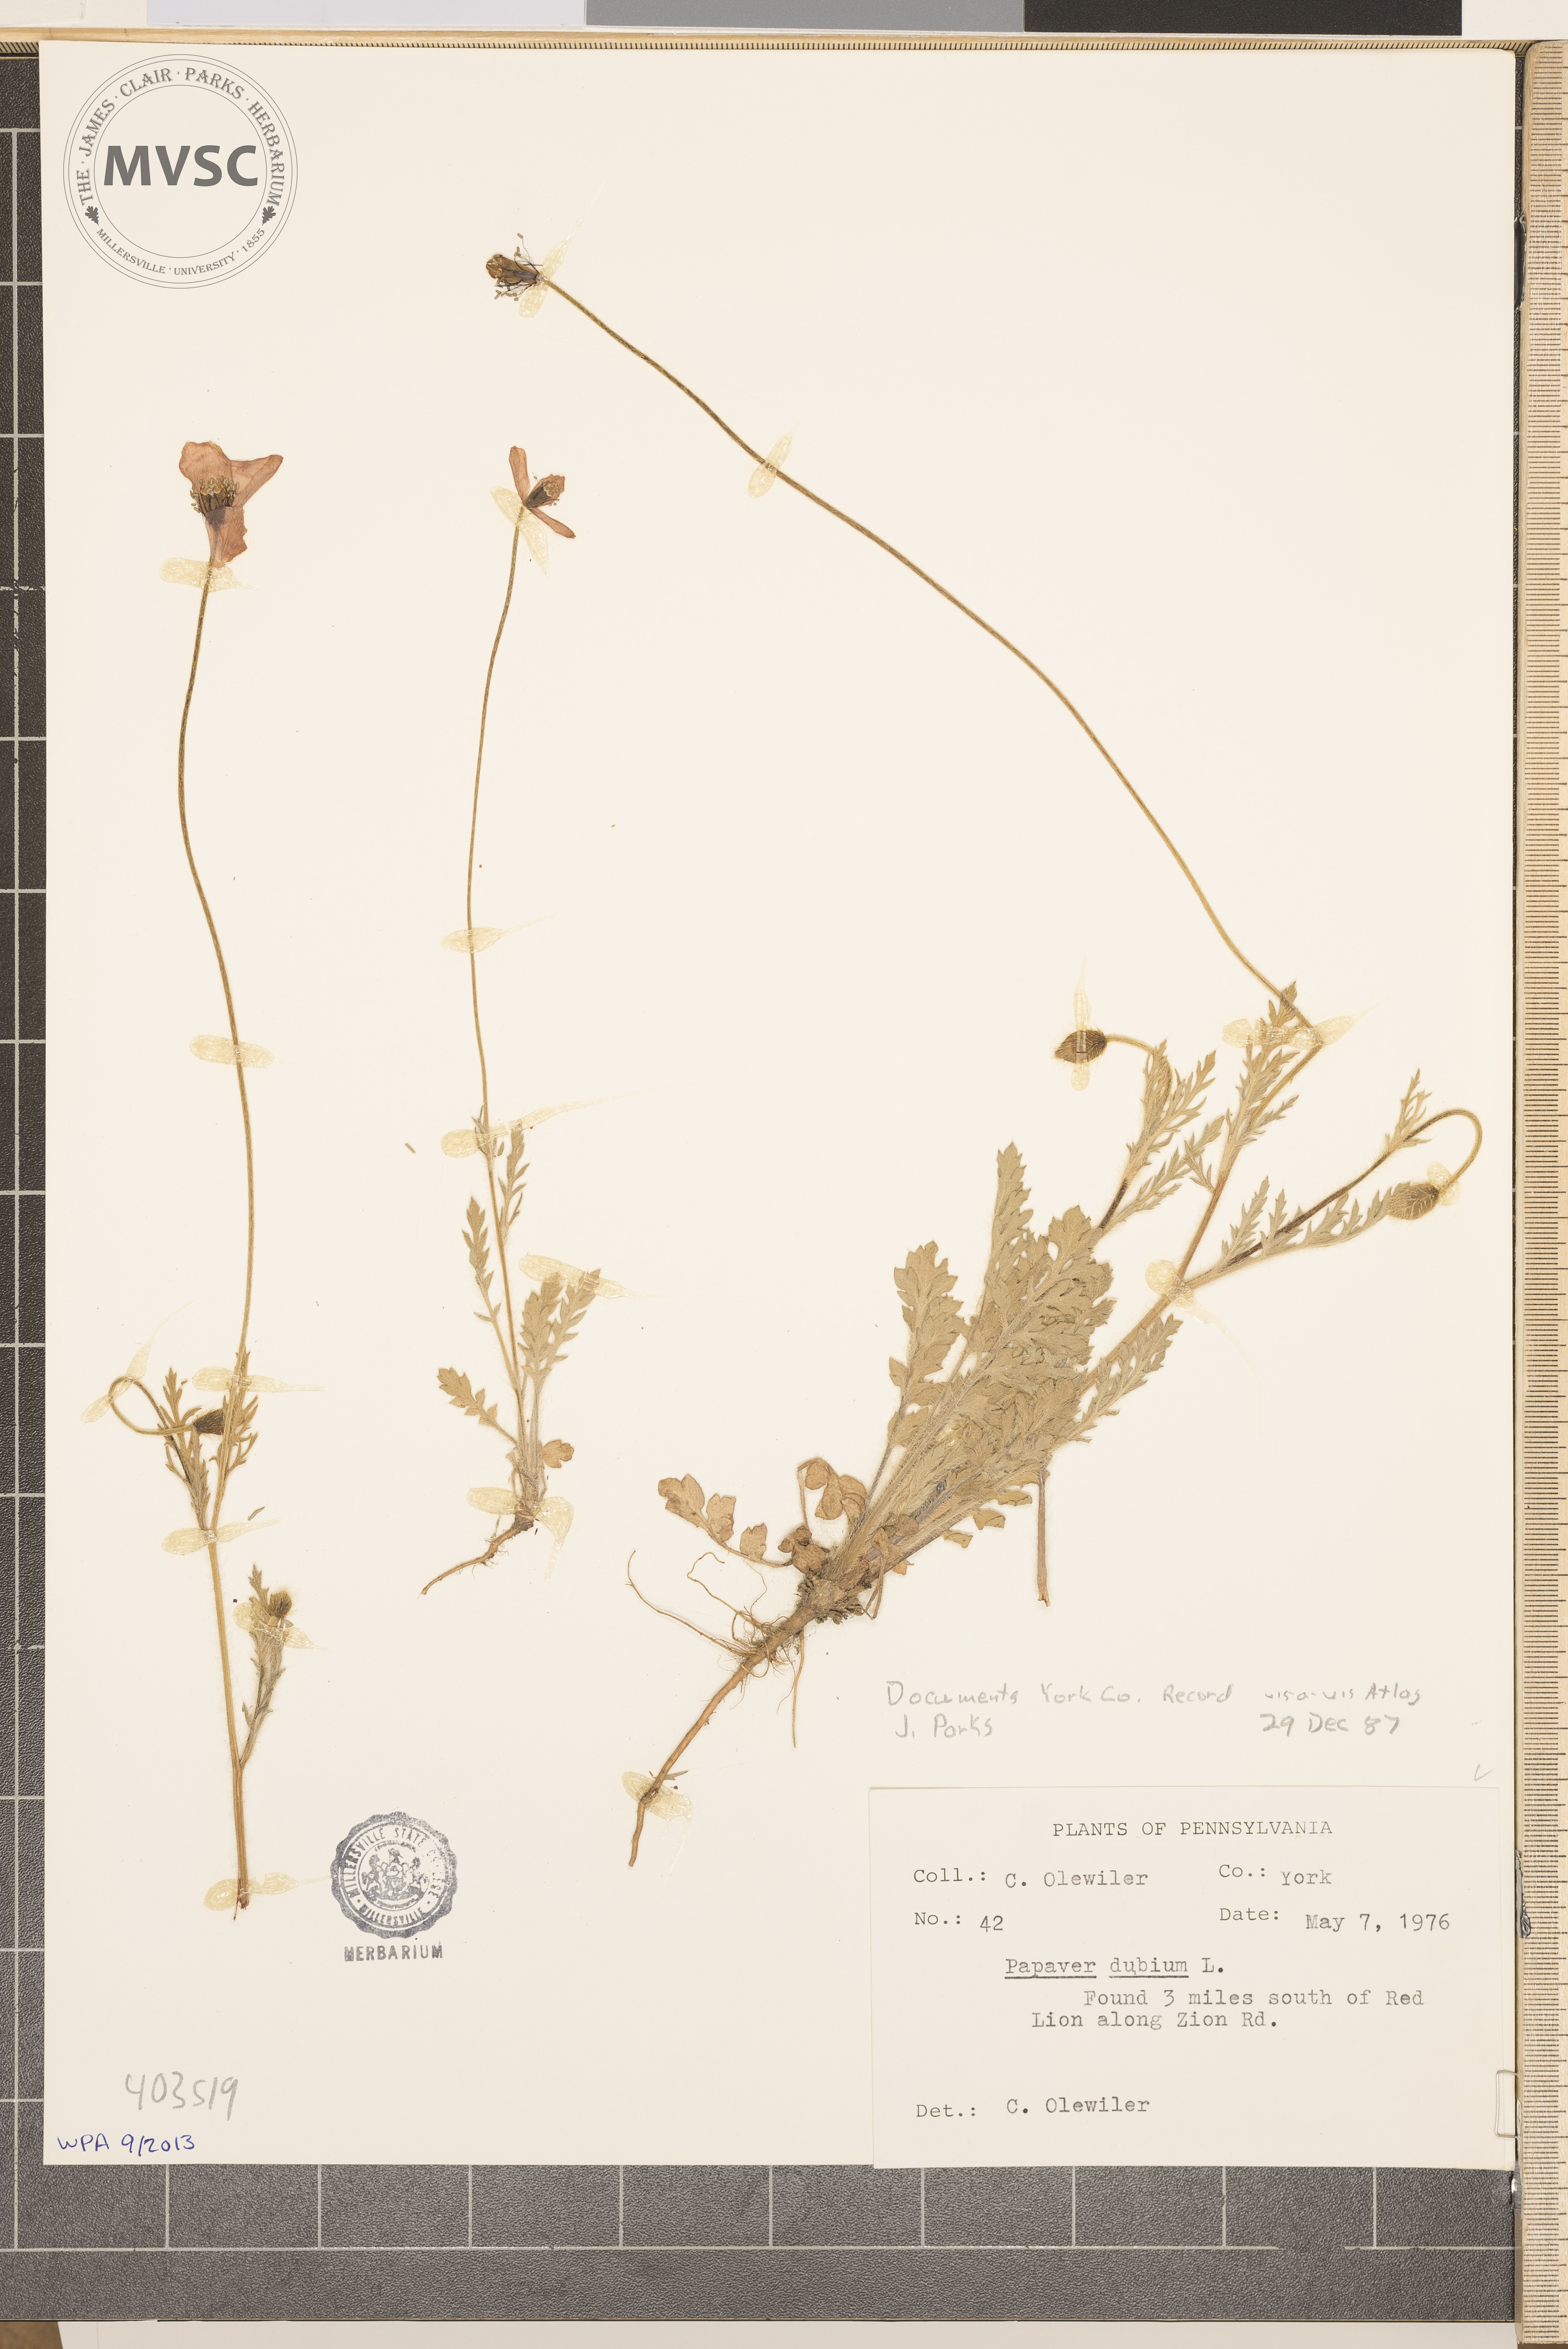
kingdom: Plantae
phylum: Tracheophyta
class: Magnoliopsida
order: Ranunculales
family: Papaveraceae
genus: Papaver
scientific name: Papaver dubium
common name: Long-headed poppy
